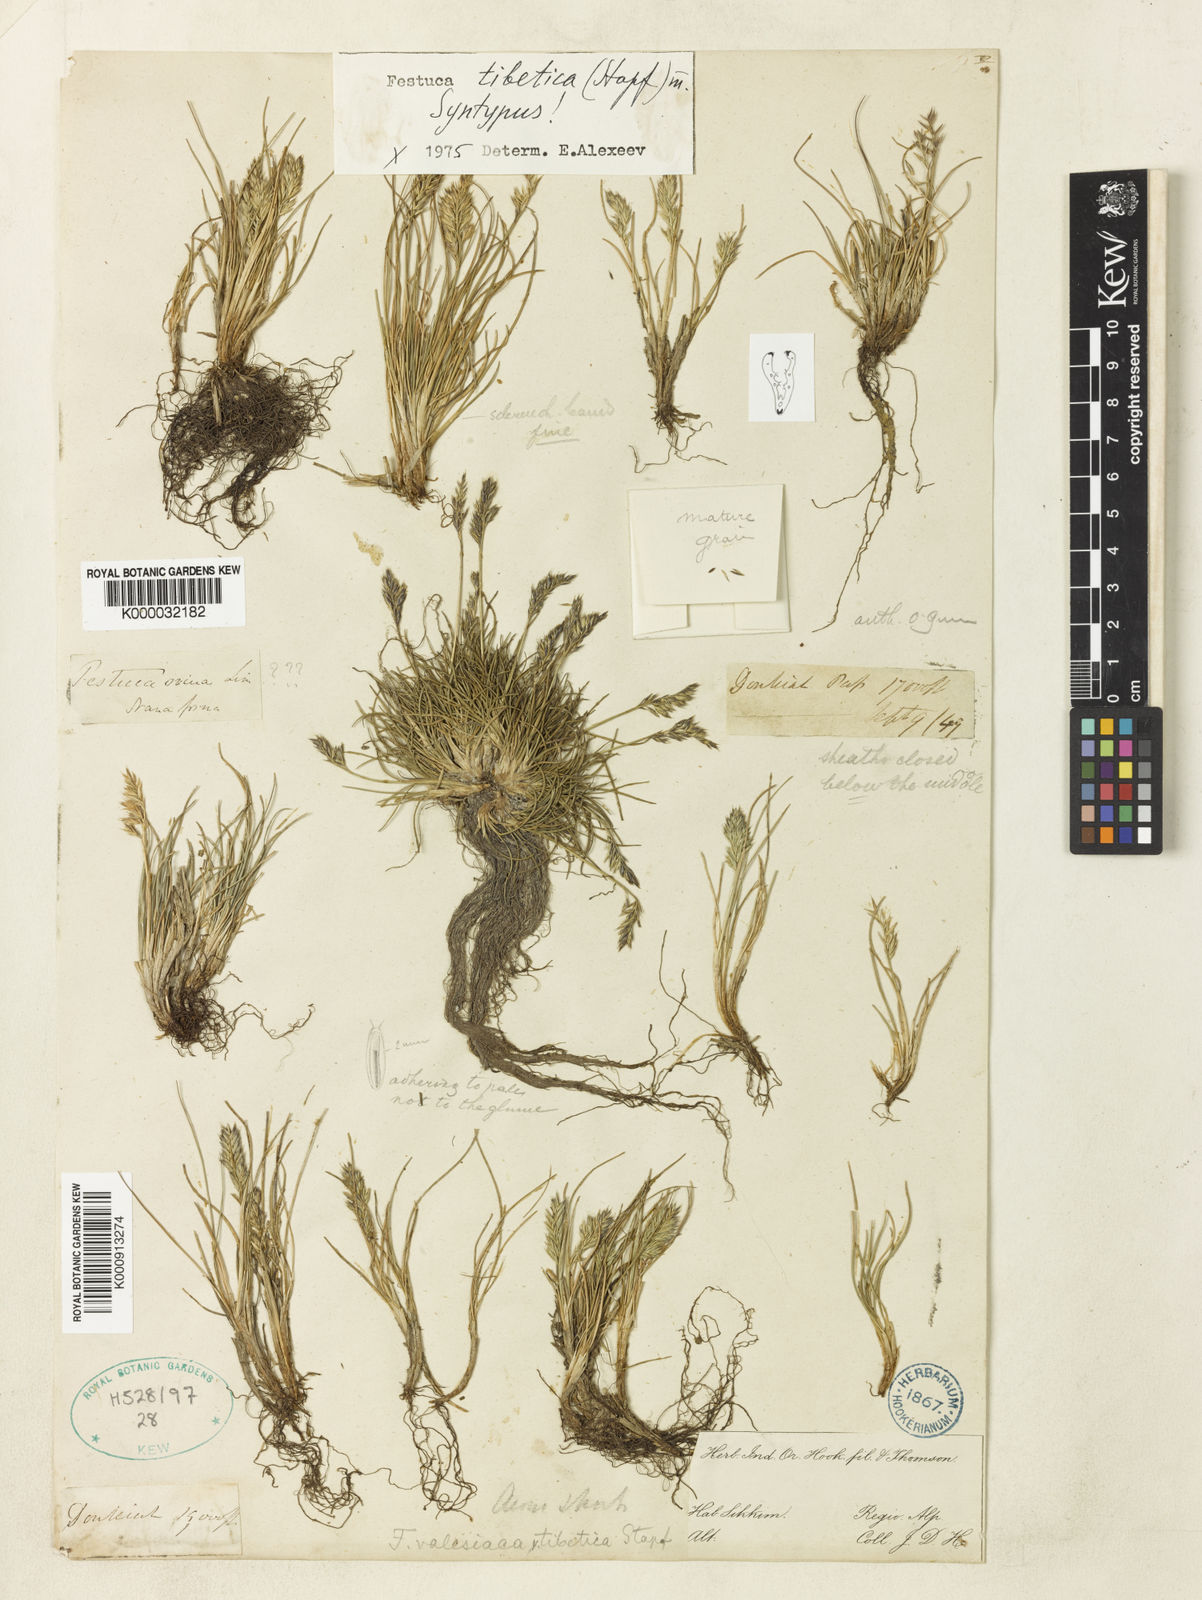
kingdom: Plantae
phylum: Tracheophyta
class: Liliopsida
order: Poales
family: Poaceae
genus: Festuca
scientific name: Festuca tibetica
